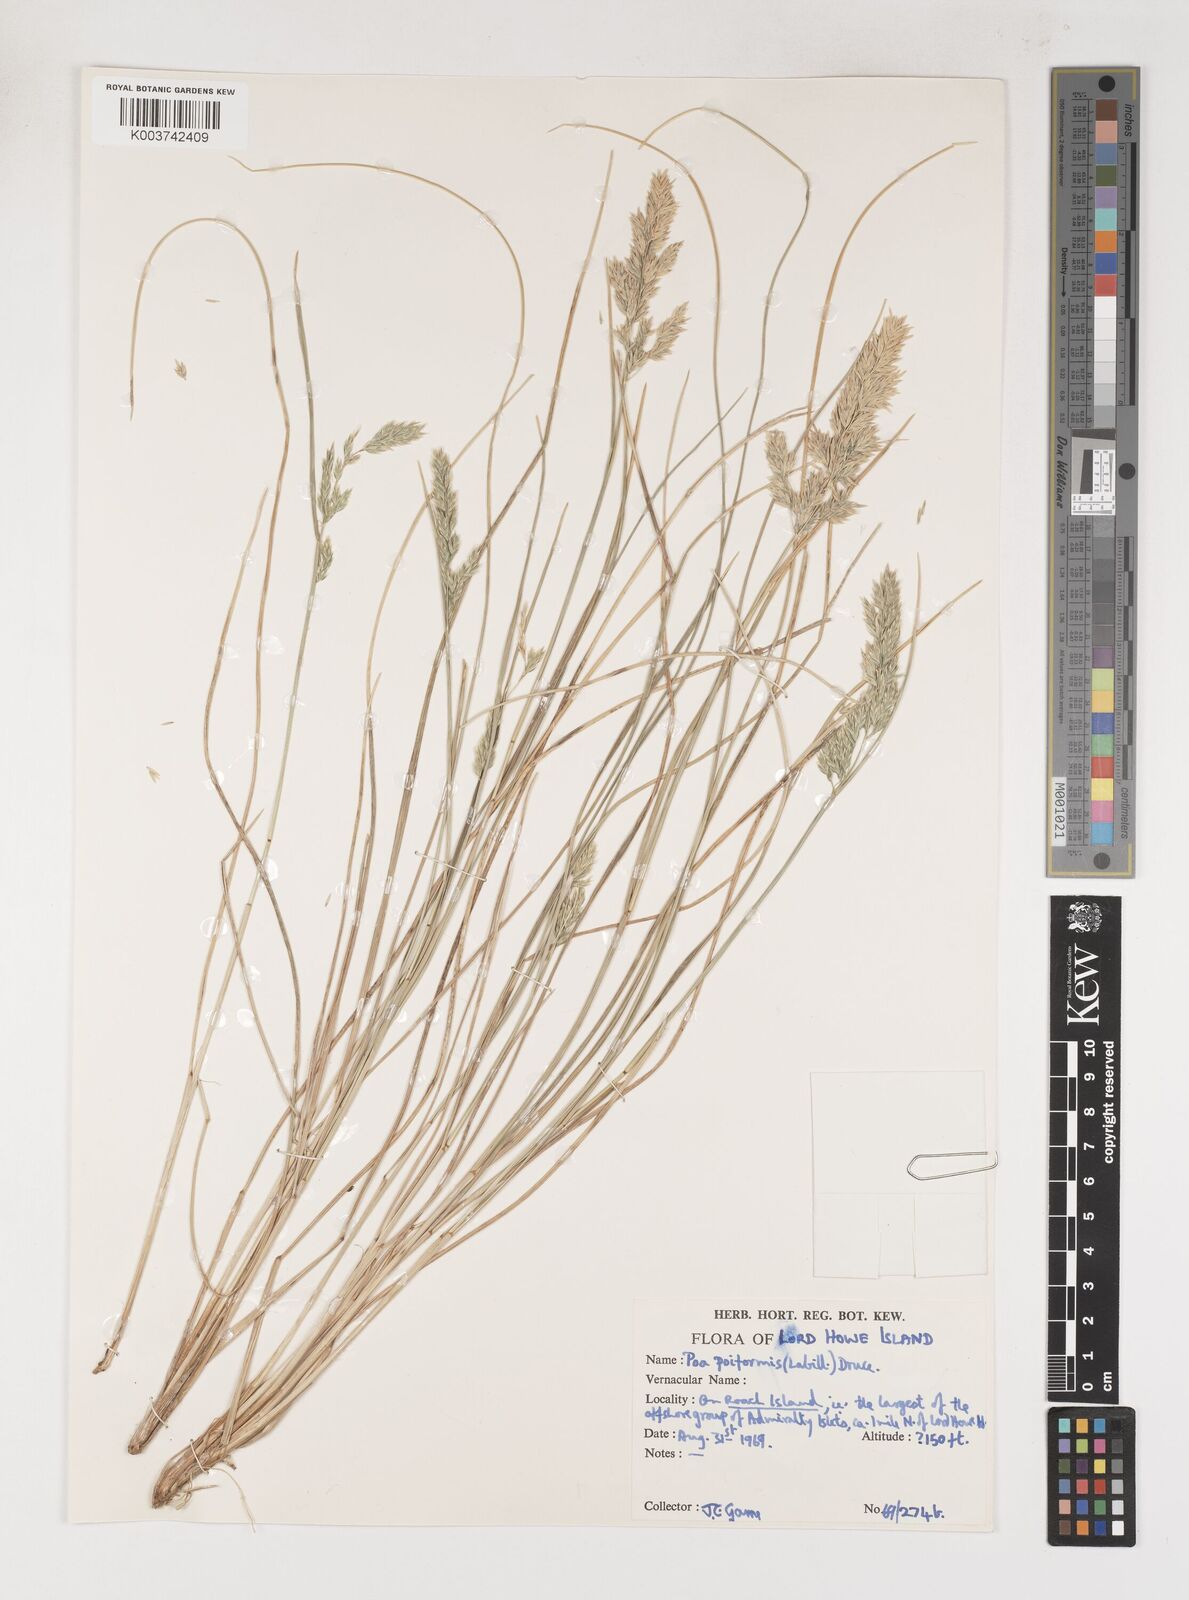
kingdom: Plantae
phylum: Tracheophyta
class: Liliopsida
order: Poales
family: Poaceae
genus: Poa
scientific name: Poa poiformis
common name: Tussock poa
